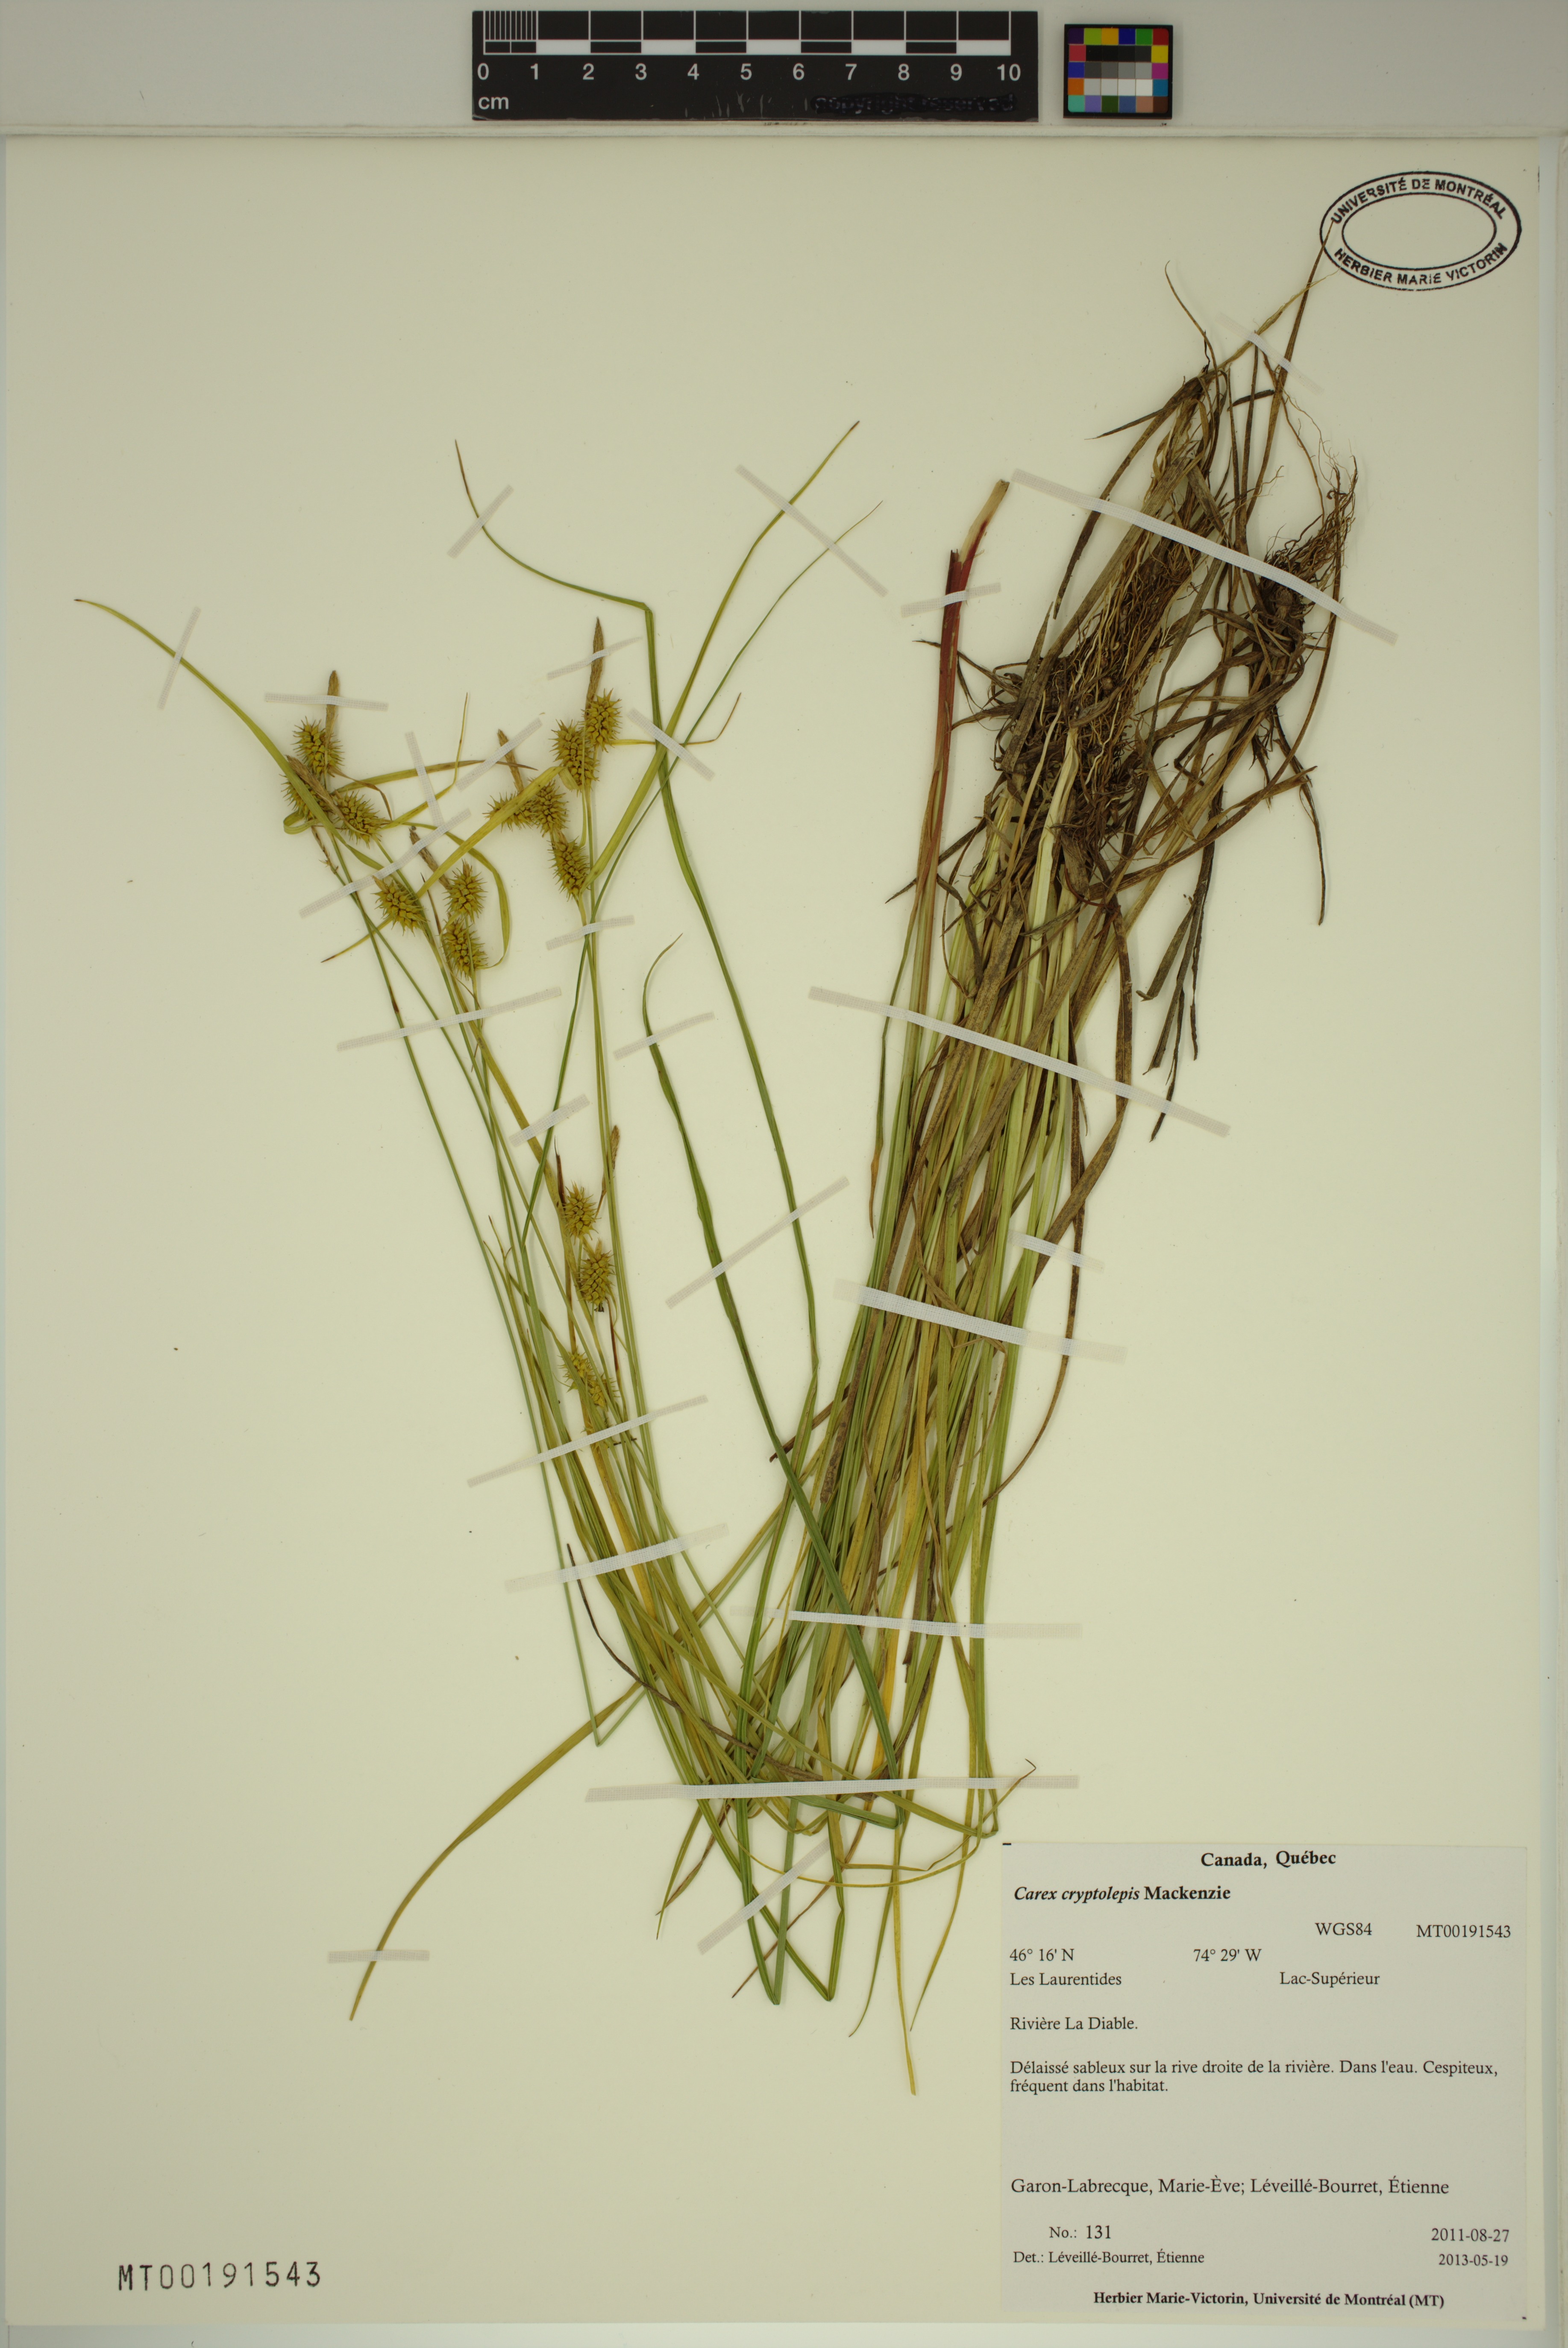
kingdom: Plantae
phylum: Tracheophyta
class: Liliopsida
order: Poales
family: Cyperaceae
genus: Carex
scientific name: Carex cryptolepis
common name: Northeastern sedge
